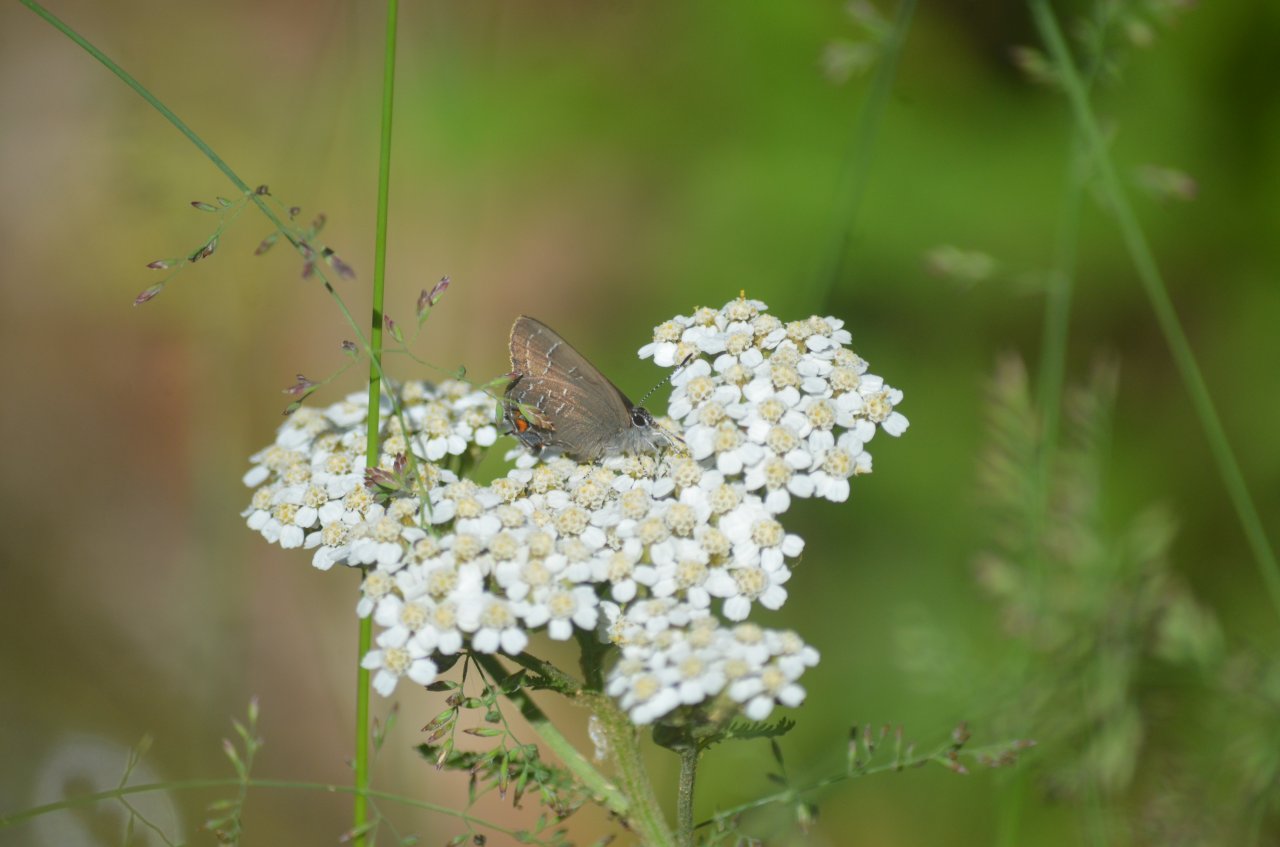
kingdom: Animalia
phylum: Arthropoda
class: Insecta
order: Lepidoptera
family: Lycaenidae
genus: Satyrium
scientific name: Satyrium calanus
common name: Banded Hairstreak
